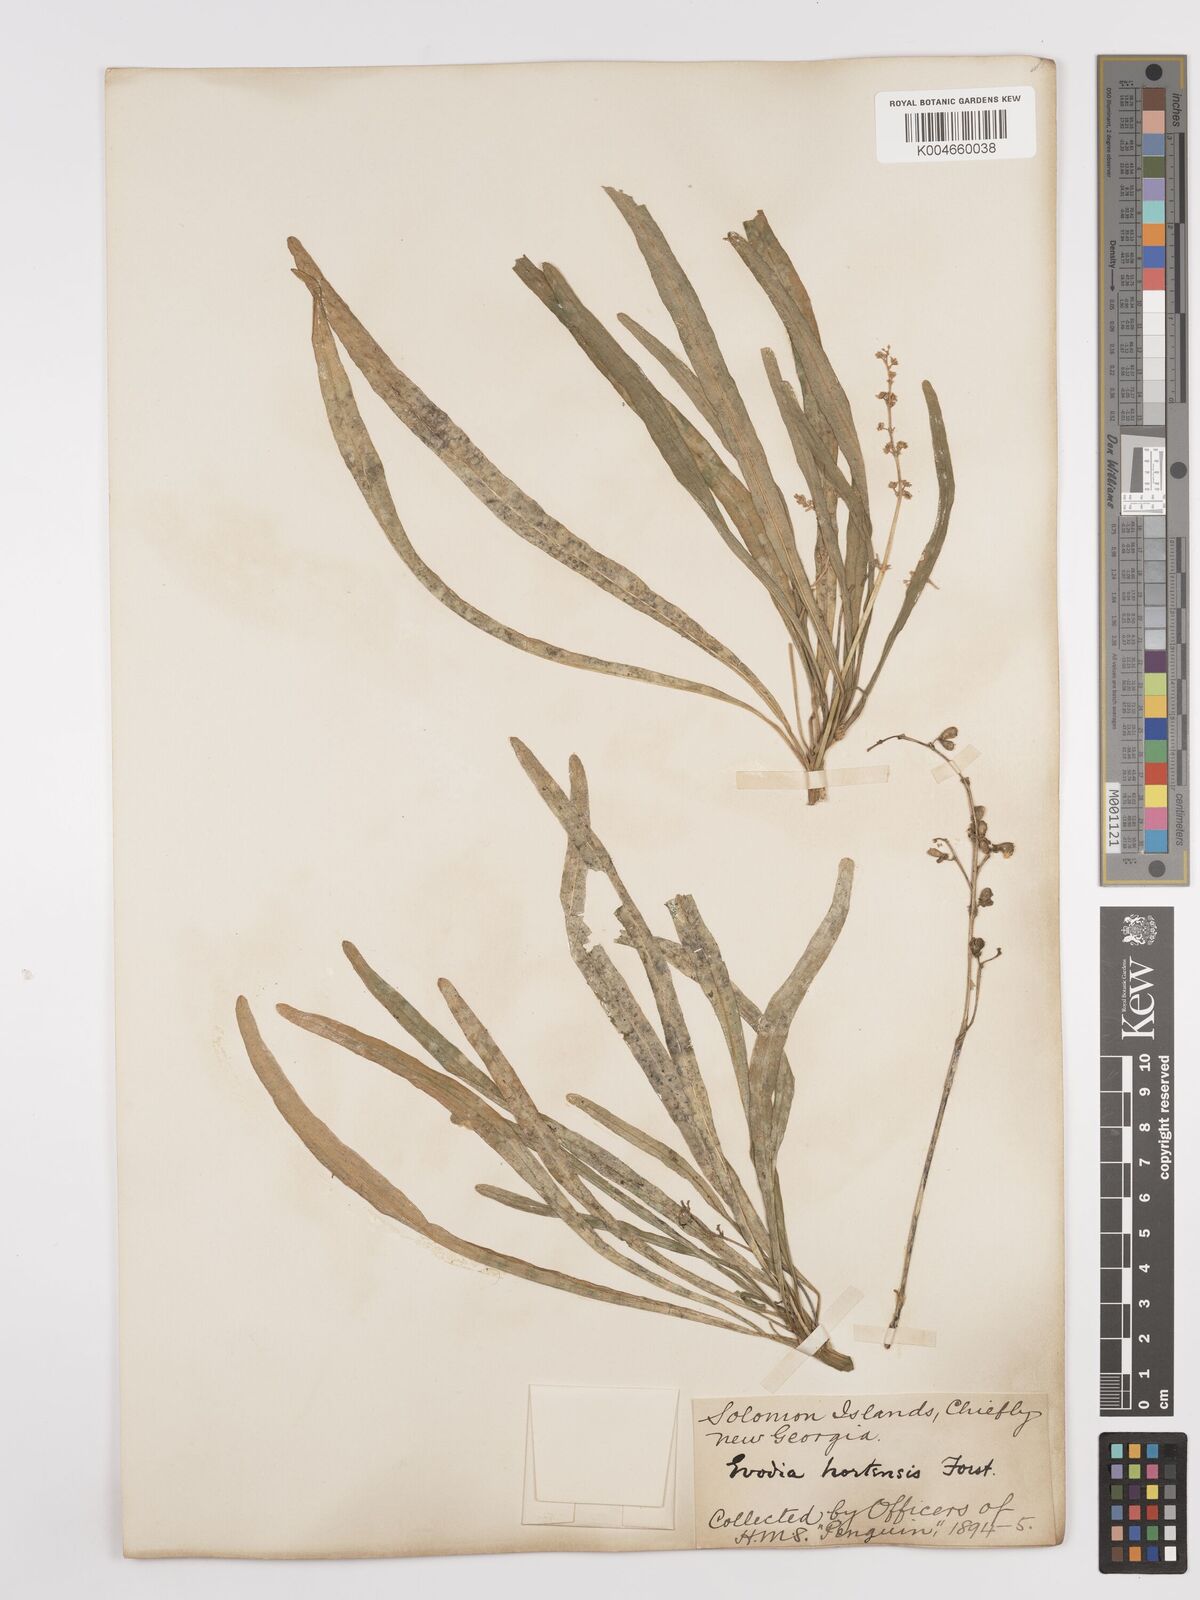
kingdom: Plantae
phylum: Tracheophyta
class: Magnoliopsida
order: Sapindales
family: Rutaceae
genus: Euodia
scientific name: Euodia hortensis
